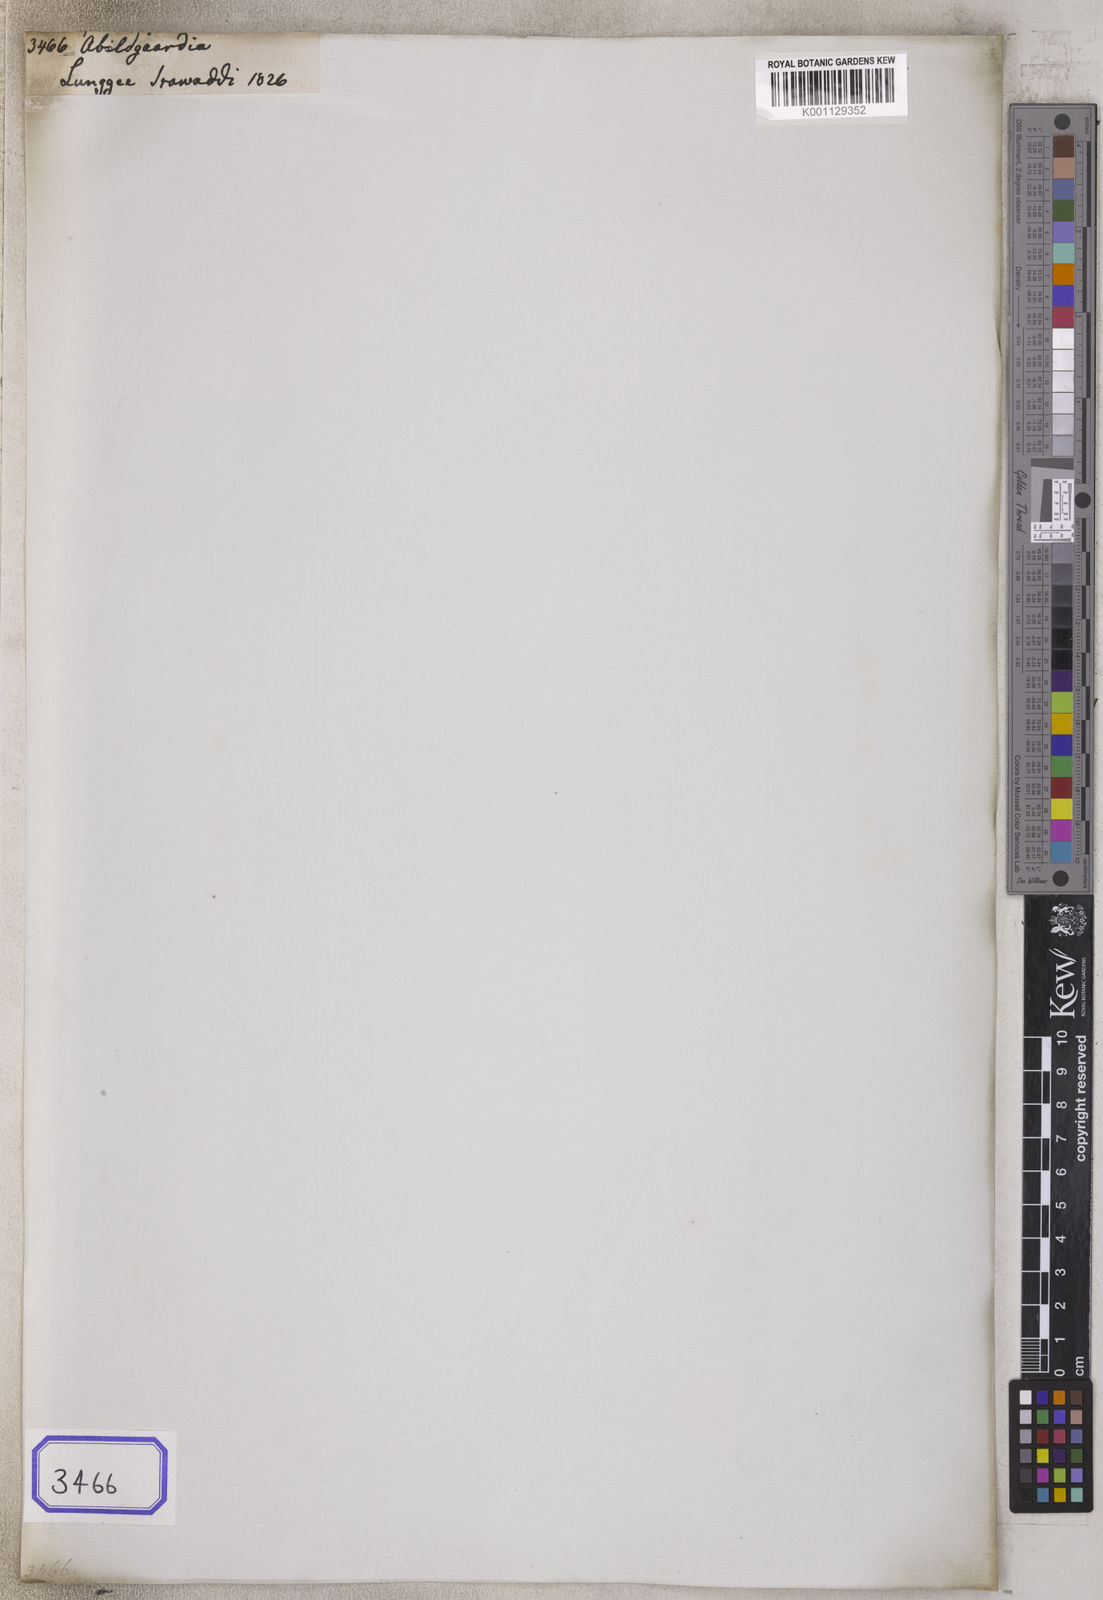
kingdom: Plantae
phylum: Tracheophyta
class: Liliopsida
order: Poales
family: Cyperaceae
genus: Abildgaardia
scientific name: Abildgaardia
